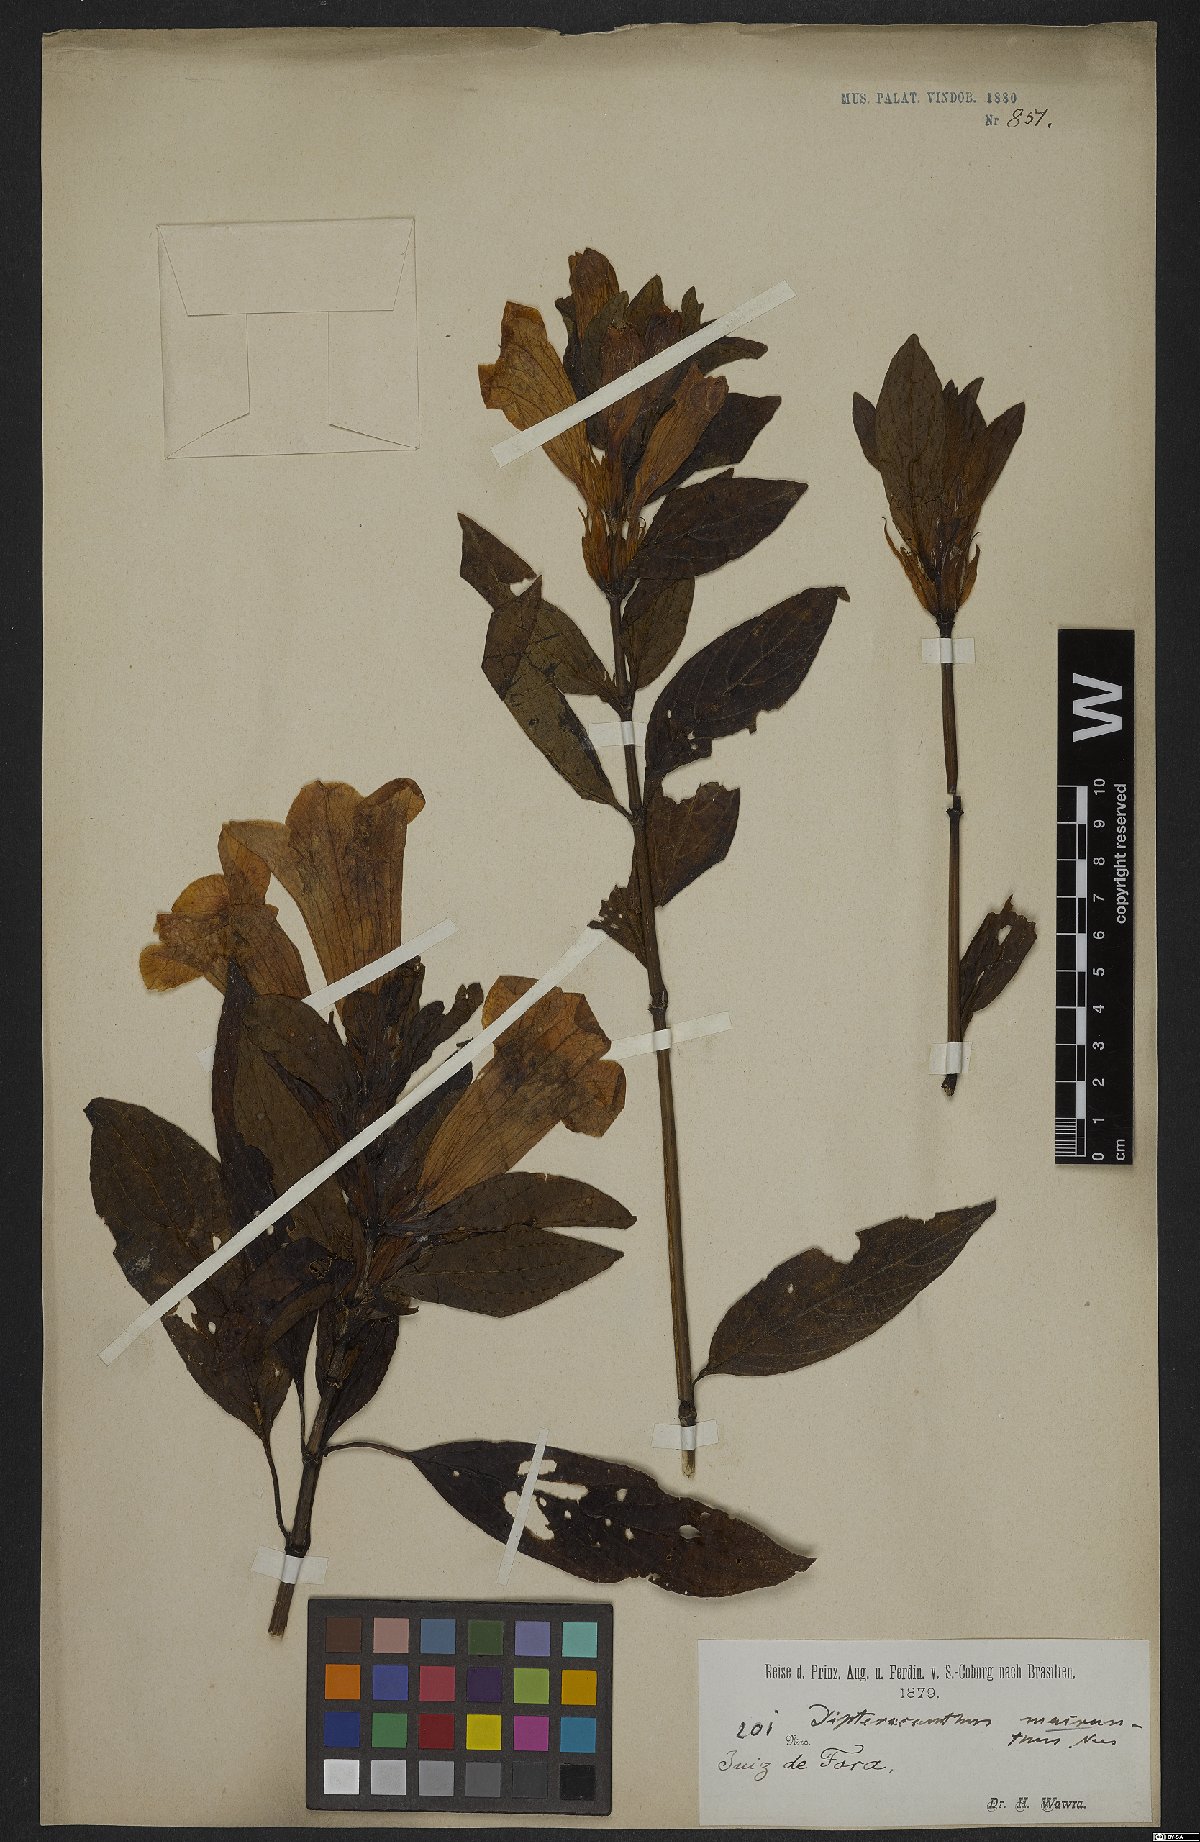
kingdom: Plantae
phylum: Tracheophyta
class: Magnoliopsida
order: Lamiales
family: Acanthaceae
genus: Ruellia
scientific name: Ruellia macrantha
